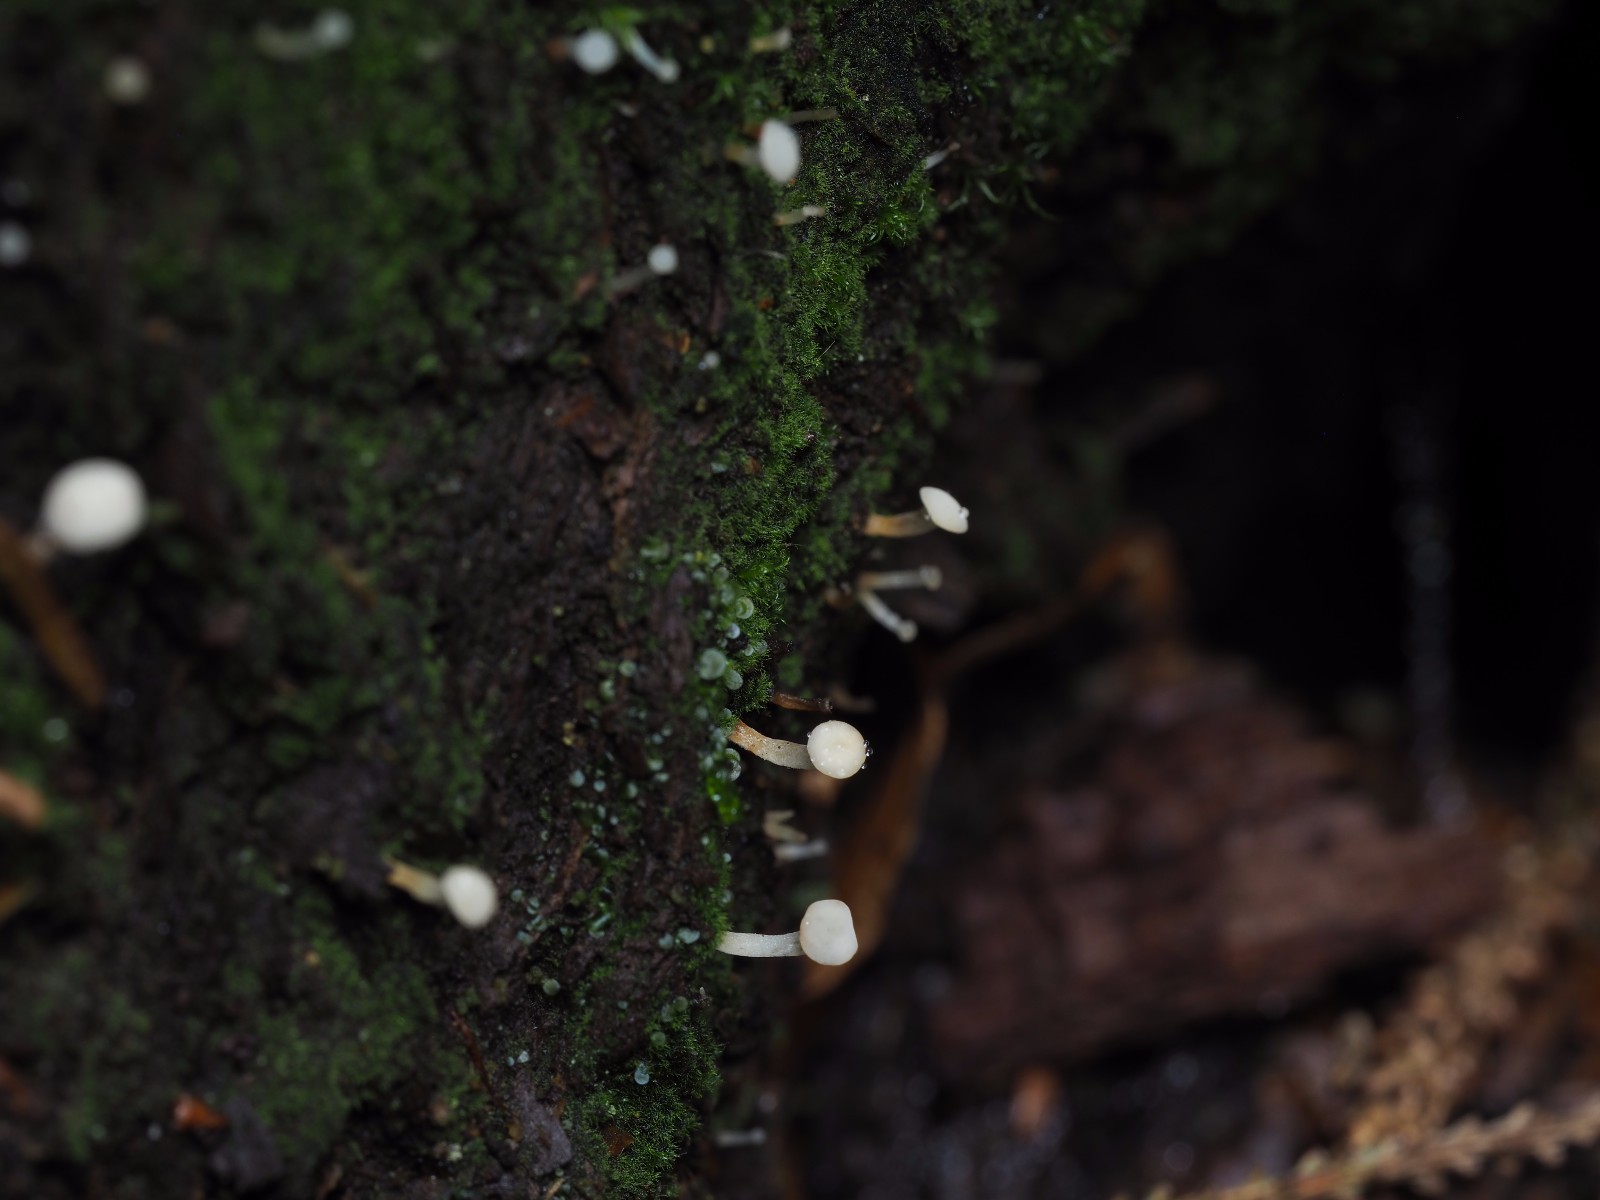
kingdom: Fungi
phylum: Ascomycota
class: Leotiomycetes
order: Helotiales
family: Tricladiaceae
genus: Cudoniella
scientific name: Cudoniella acicularis
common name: ege-dyndskive
